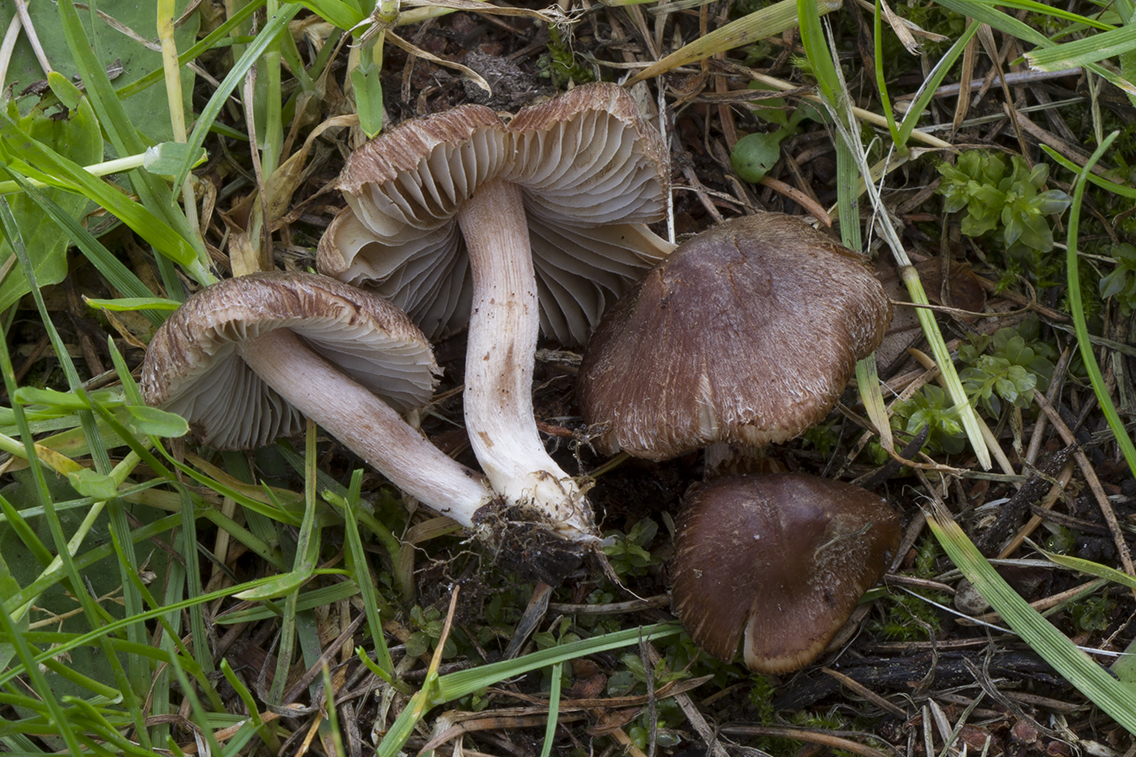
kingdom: Fungi
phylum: Basidiomycota
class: Agaricomycetes
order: Agaricales
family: Inocybaceae
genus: Inocybe
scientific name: Inocybe derbschii
